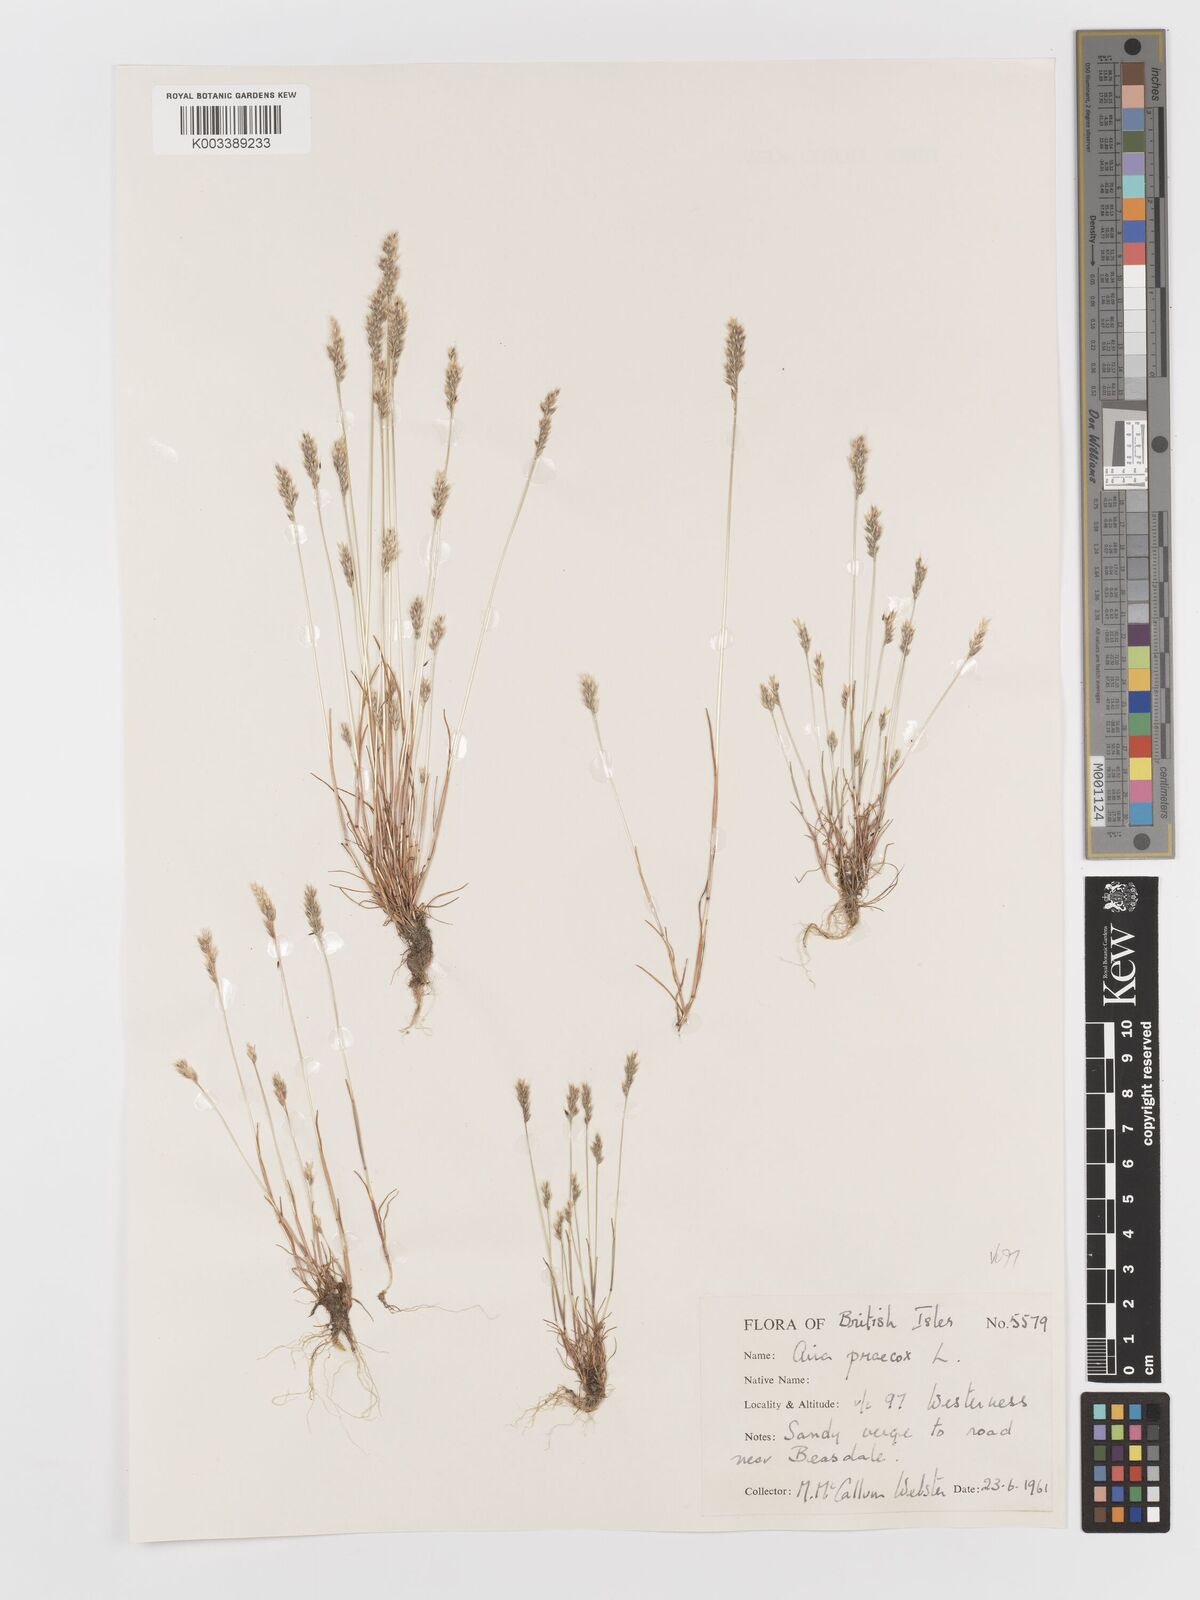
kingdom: Plantae
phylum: Tracheophyta
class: Liliopsida
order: Poales
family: Poaceae
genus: Aira
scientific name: Aira praecox
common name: Early hair-grass
